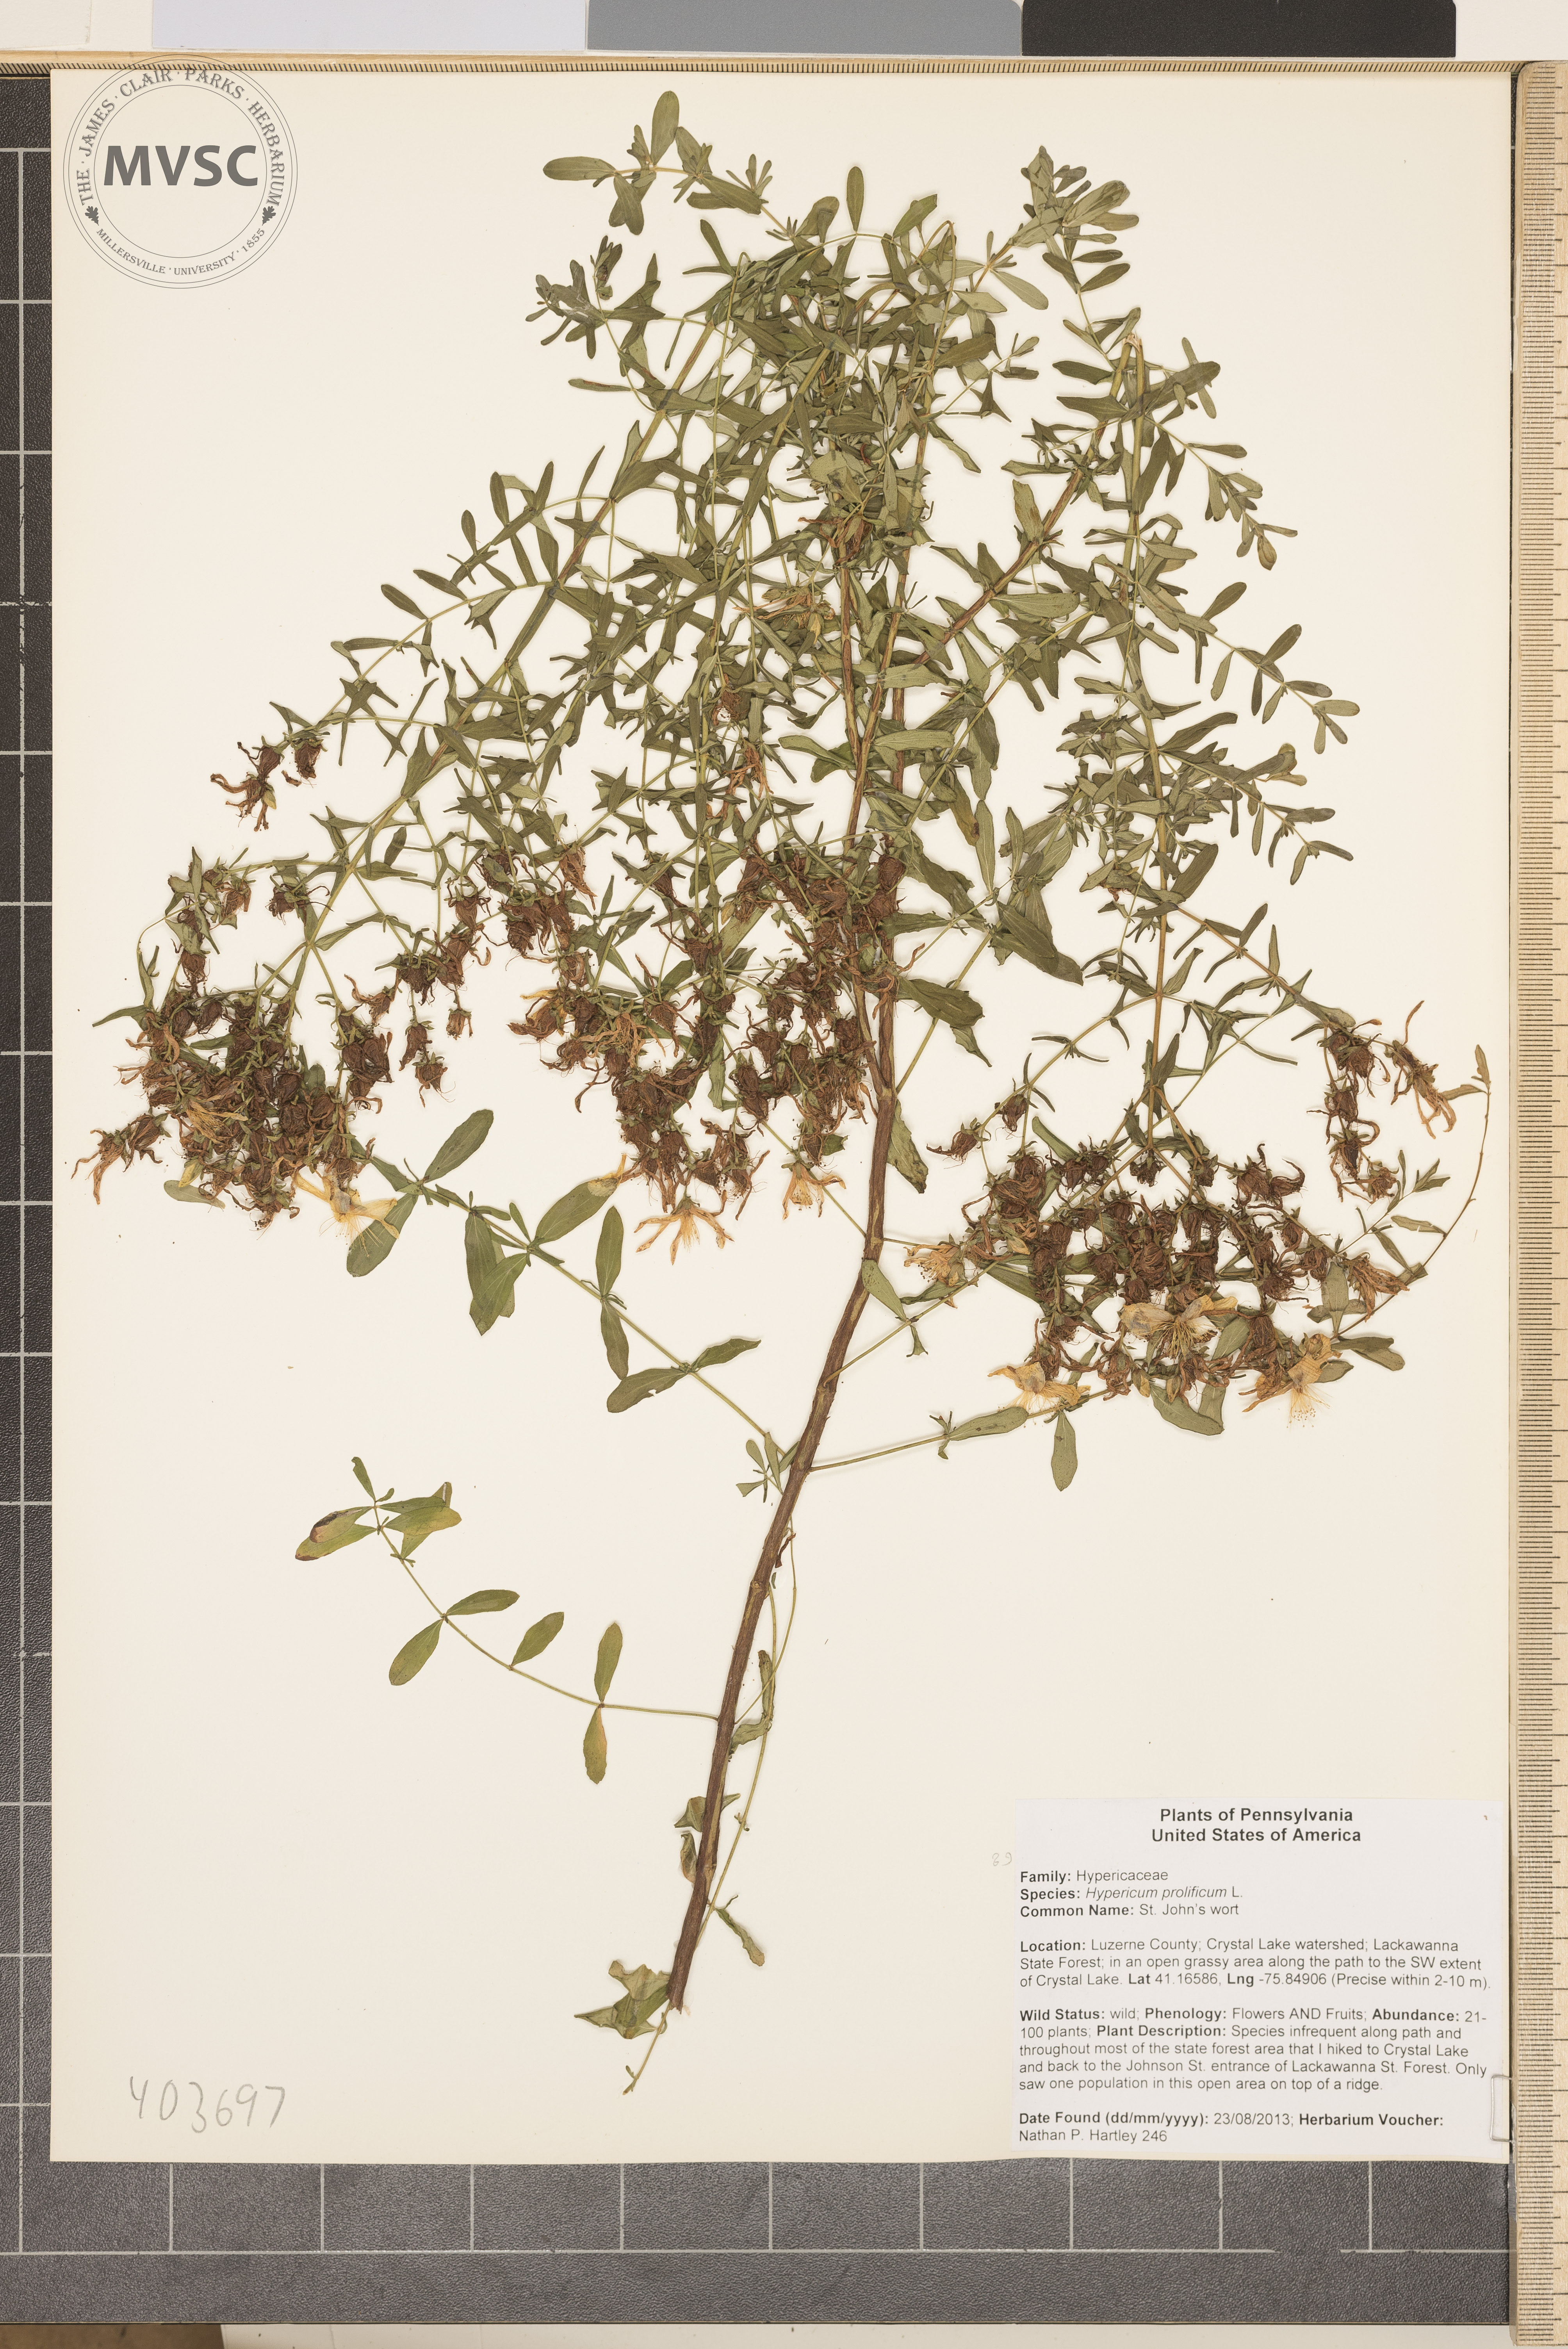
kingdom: Plantae
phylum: Tracheophyta
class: Magnoliopsida
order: Malpighiales
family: Hypericaceae
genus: Hypericum
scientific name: Hypericum prolificum
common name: Shrubby st. john's-wort
